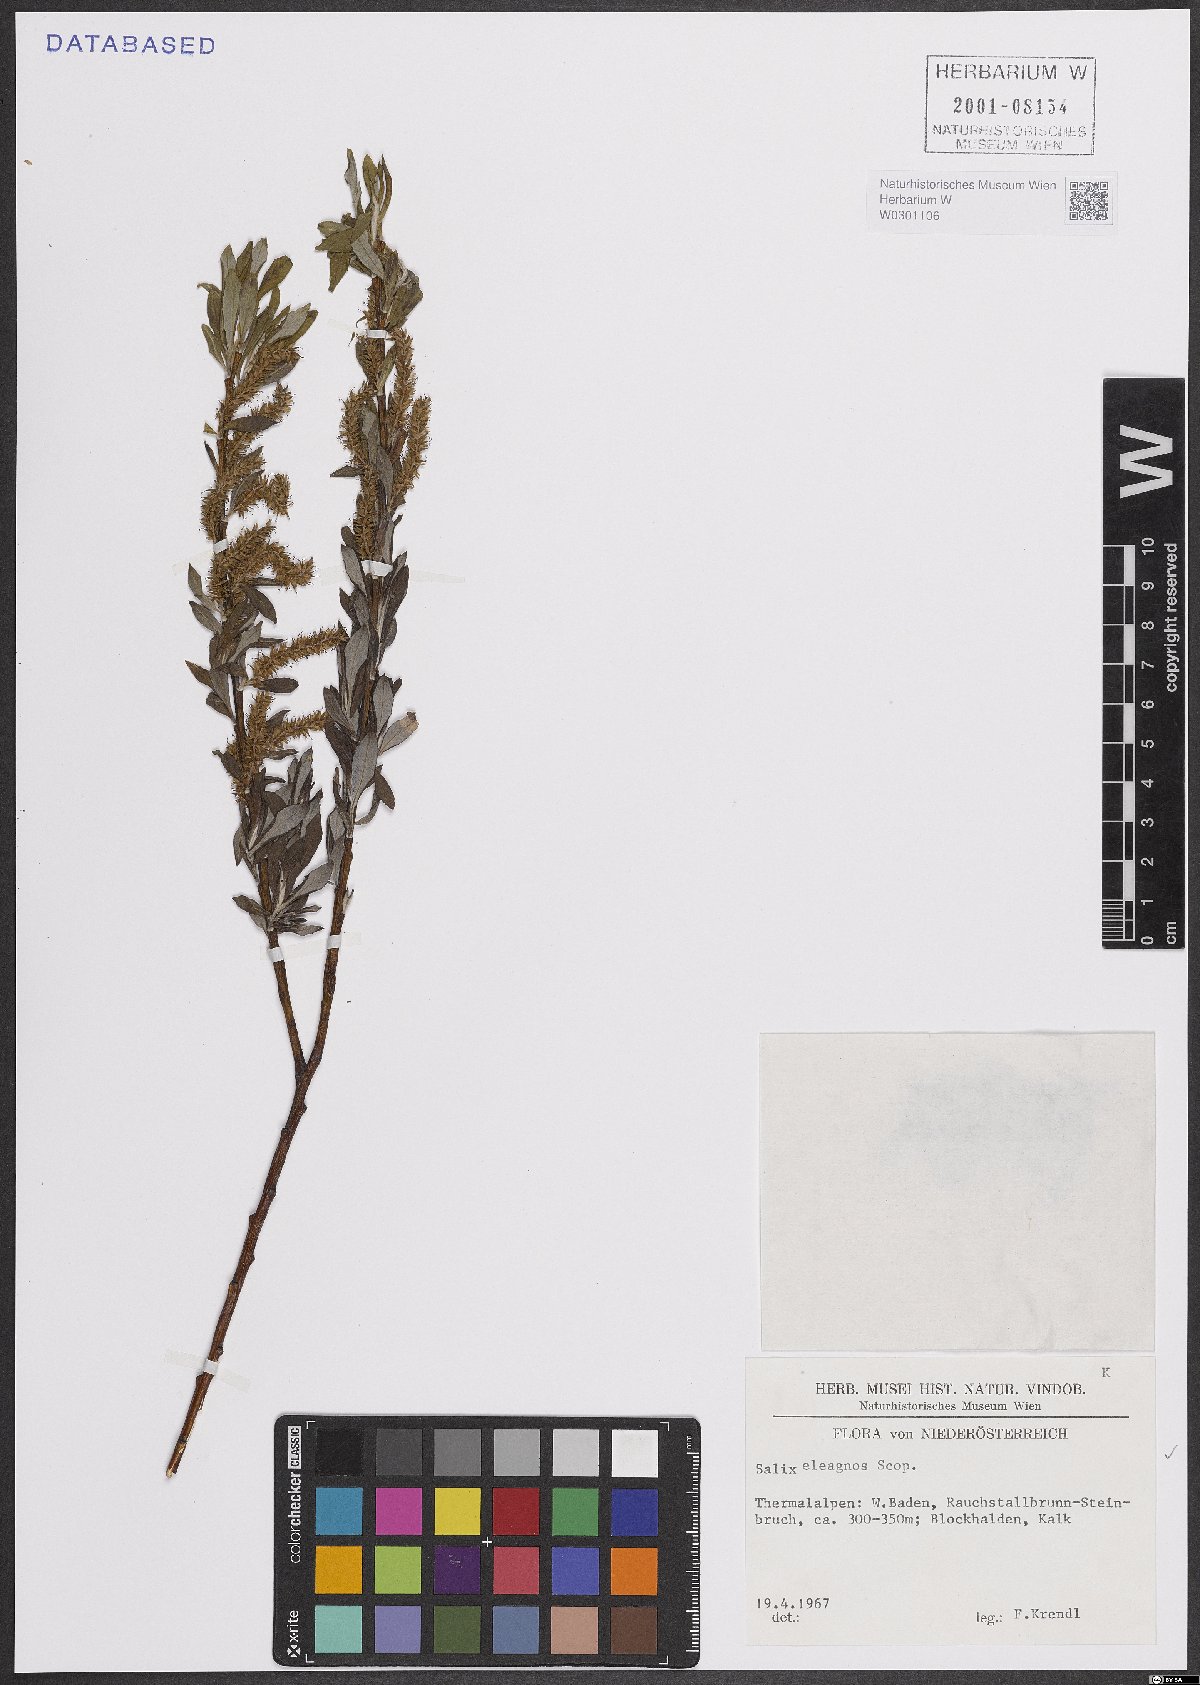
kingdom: Plantae
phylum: Tracheophyta
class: Magnoliopsida
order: Malpighiales
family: Salicaceae
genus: Salix
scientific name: Salix eleagnos
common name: Elaeagnus willow
